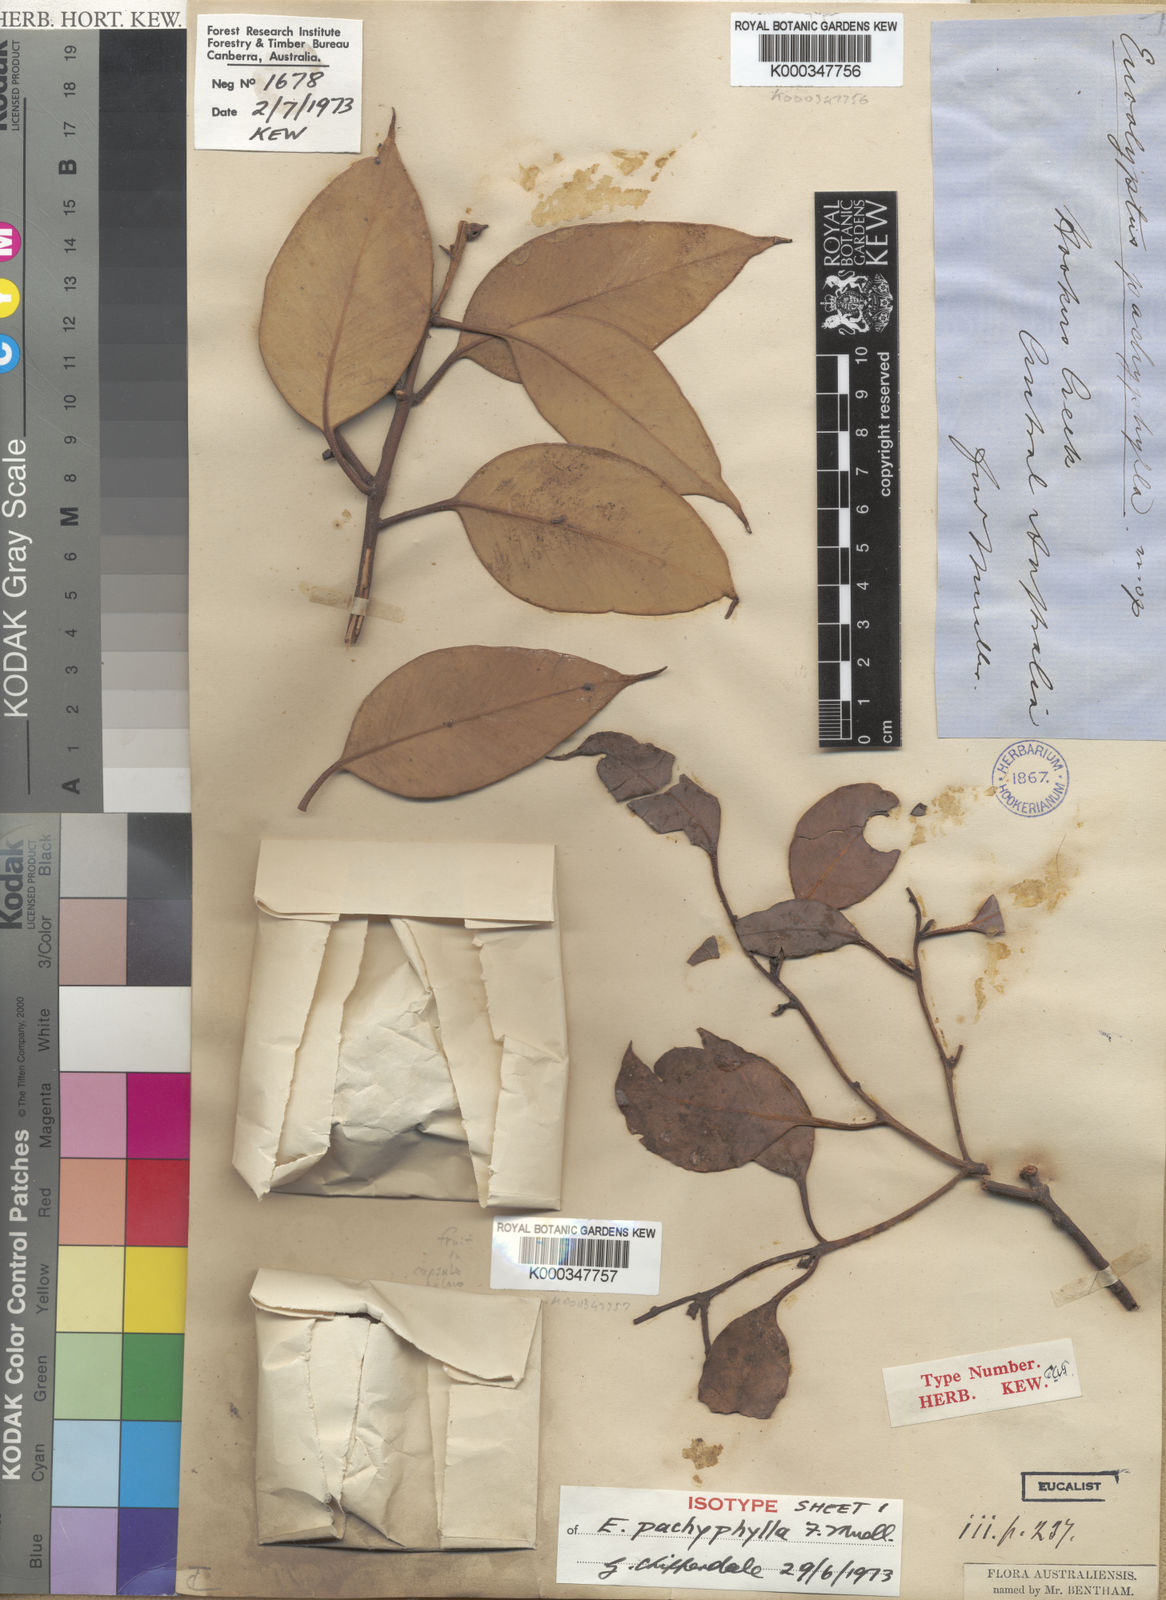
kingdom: Plantae
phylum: Tracheophyta
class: Magnoliopsida
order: Myrtales
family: Myrtaceae
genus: Eucalyptus
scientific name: Eucalyptus pachyphylla
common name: Thick-leaf mallee
